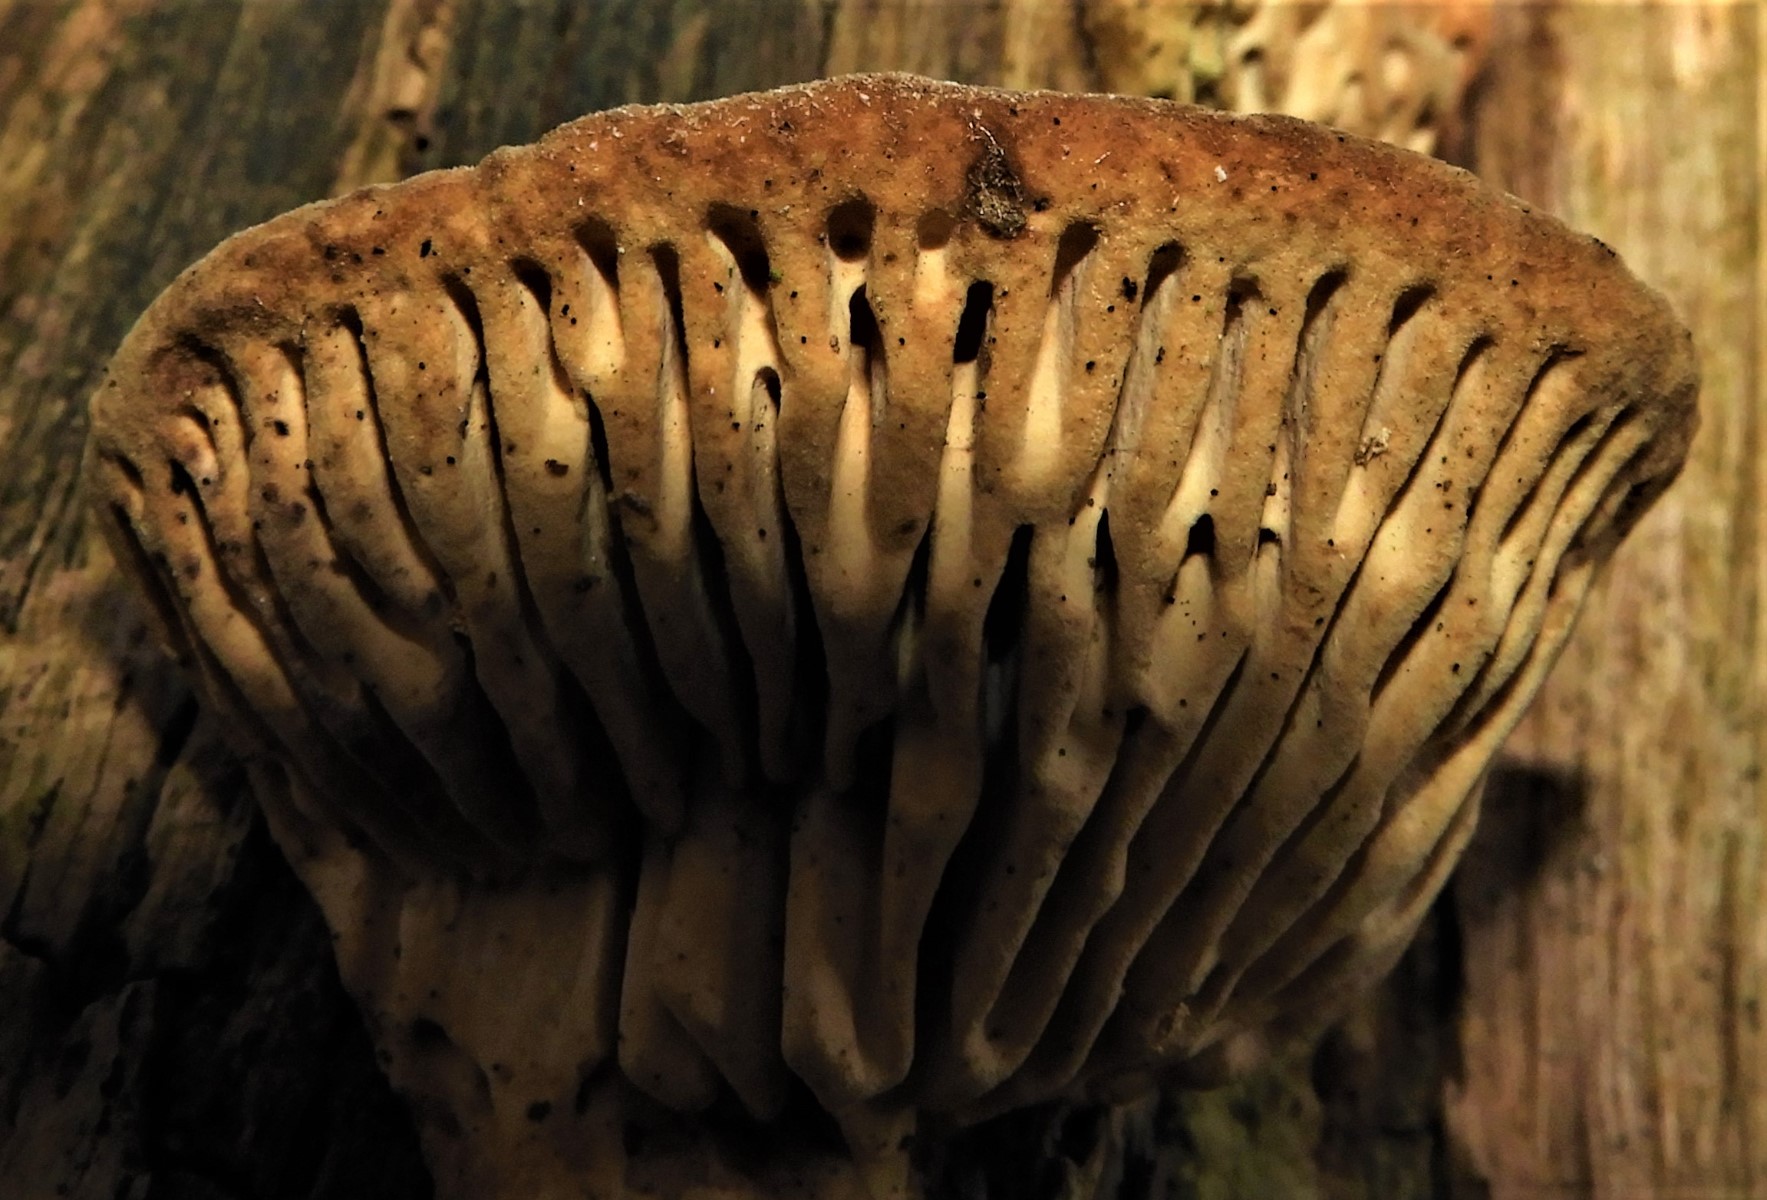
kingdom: Fungi
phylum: Basidiomycota
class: Agaricomycetes
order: Polyporales
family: Fomitopsidaceae
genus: Daedalea
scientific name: Daedalea quercina
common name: ege-labyrintsvamp
